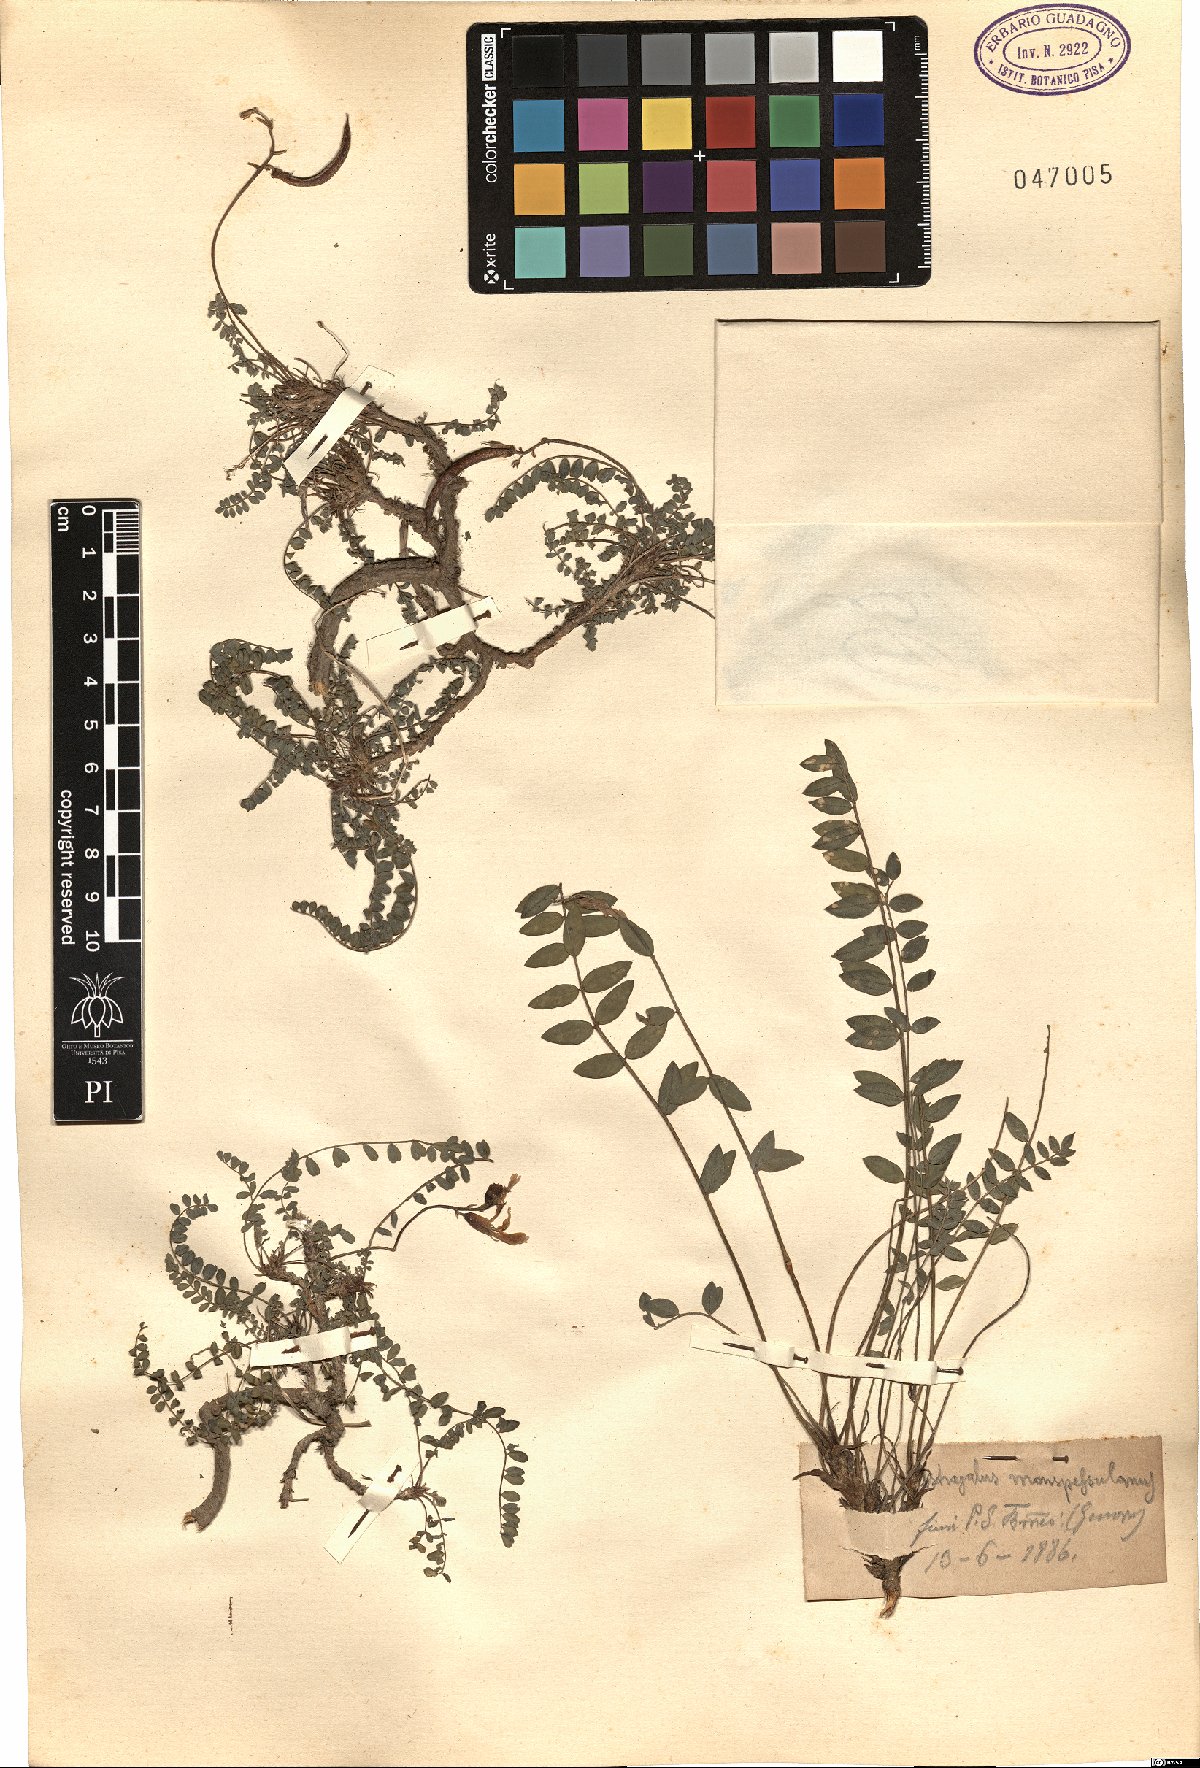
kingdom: Plantae
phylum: Tracheophyta
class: Magnoliopsida
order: Fabales
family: Fabaceae
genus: Astragalus
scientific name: Astragalus monspessulanus
